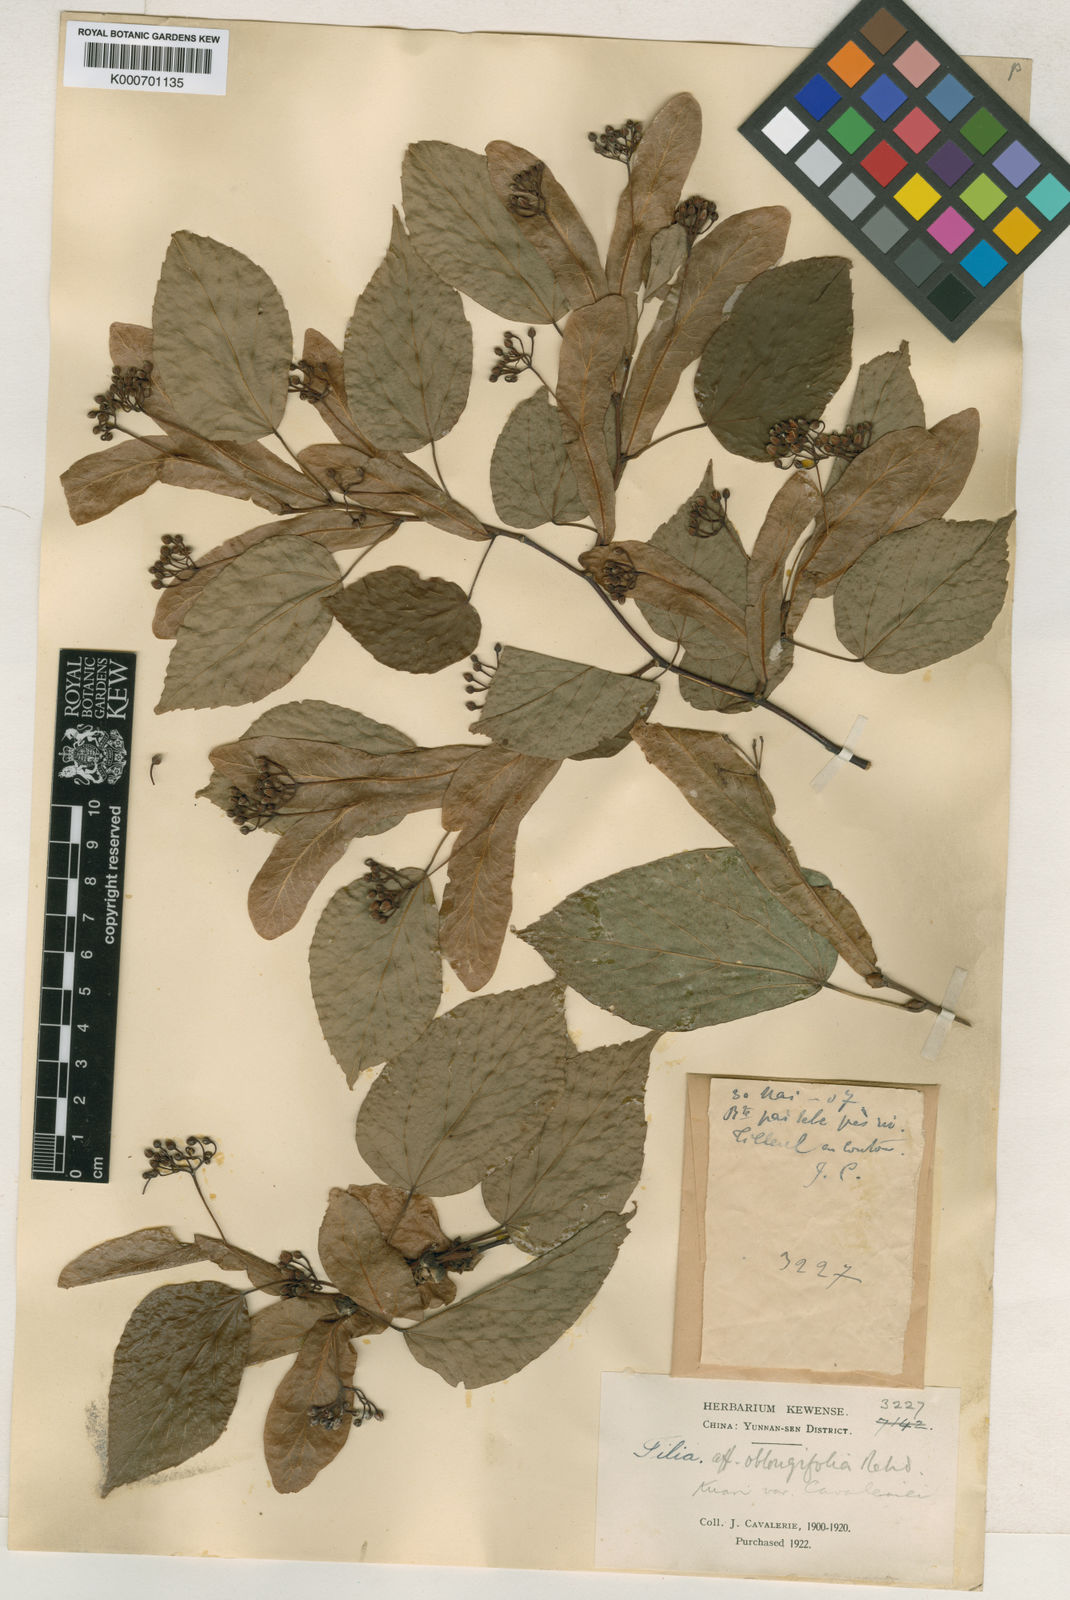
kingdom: Plantae
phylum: Tracheophyta
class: Magnoliopsida
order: Malvales
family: Malvaceae
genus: Tilia
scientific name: Tilia tuan
